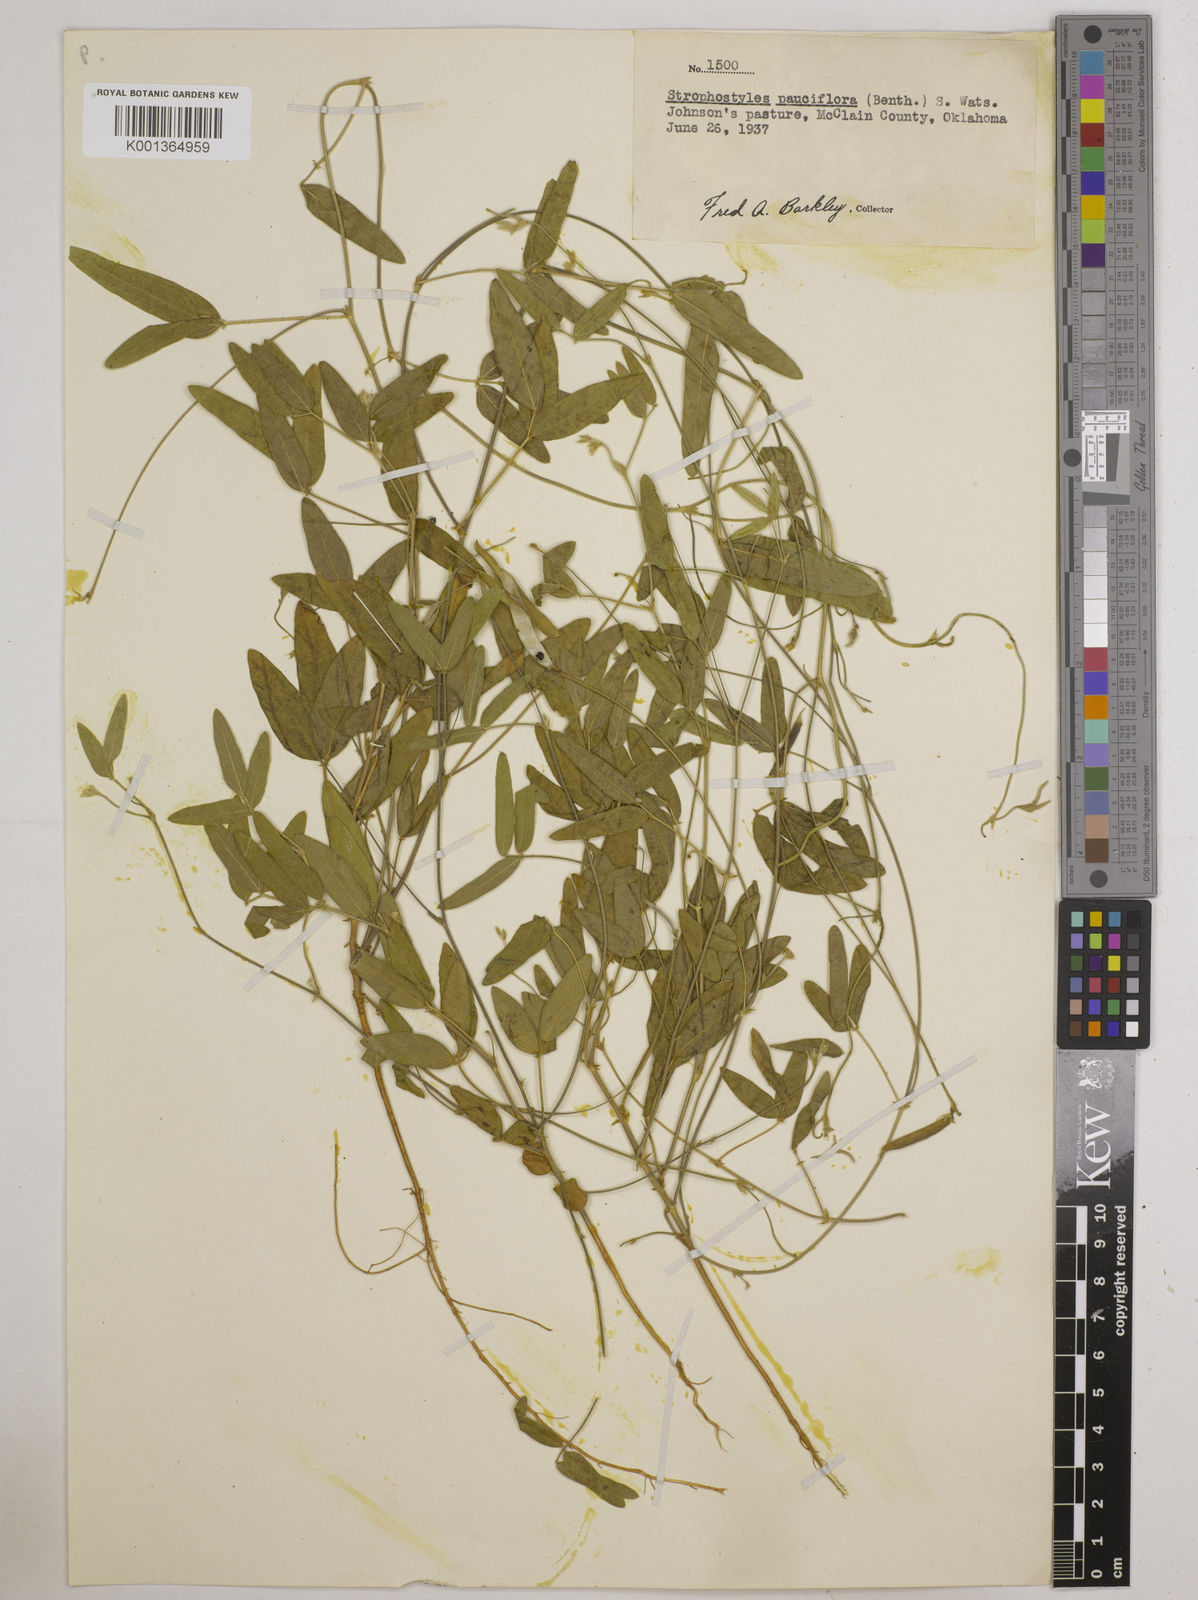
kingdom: Plantae
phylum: Tracheophyta
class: Magnoliopsida
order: Fabales
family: Fabaceae
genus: Strophostyles
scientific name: Strophostyles leiosperma
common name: Smooth-seed wild bean
